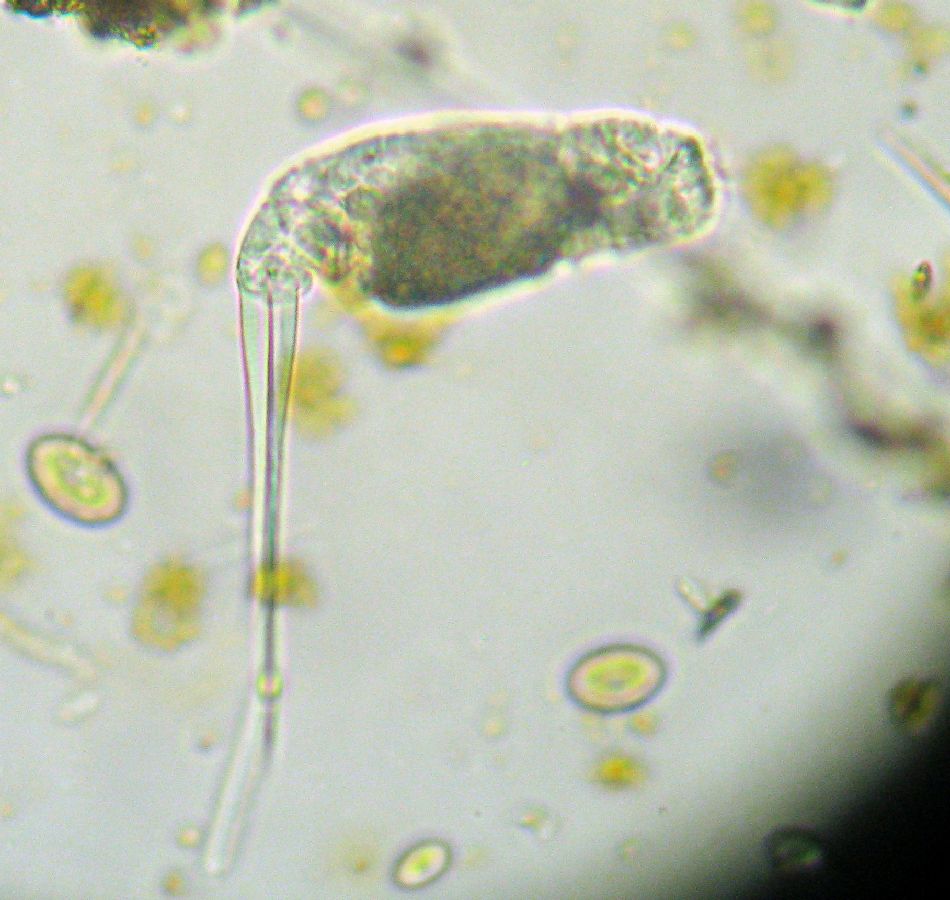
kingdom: Animalia
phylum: Rotifera
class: Eurotatoria
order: Ploima
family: Notommatidae
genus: Monommata
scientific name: Monommata longiseta
